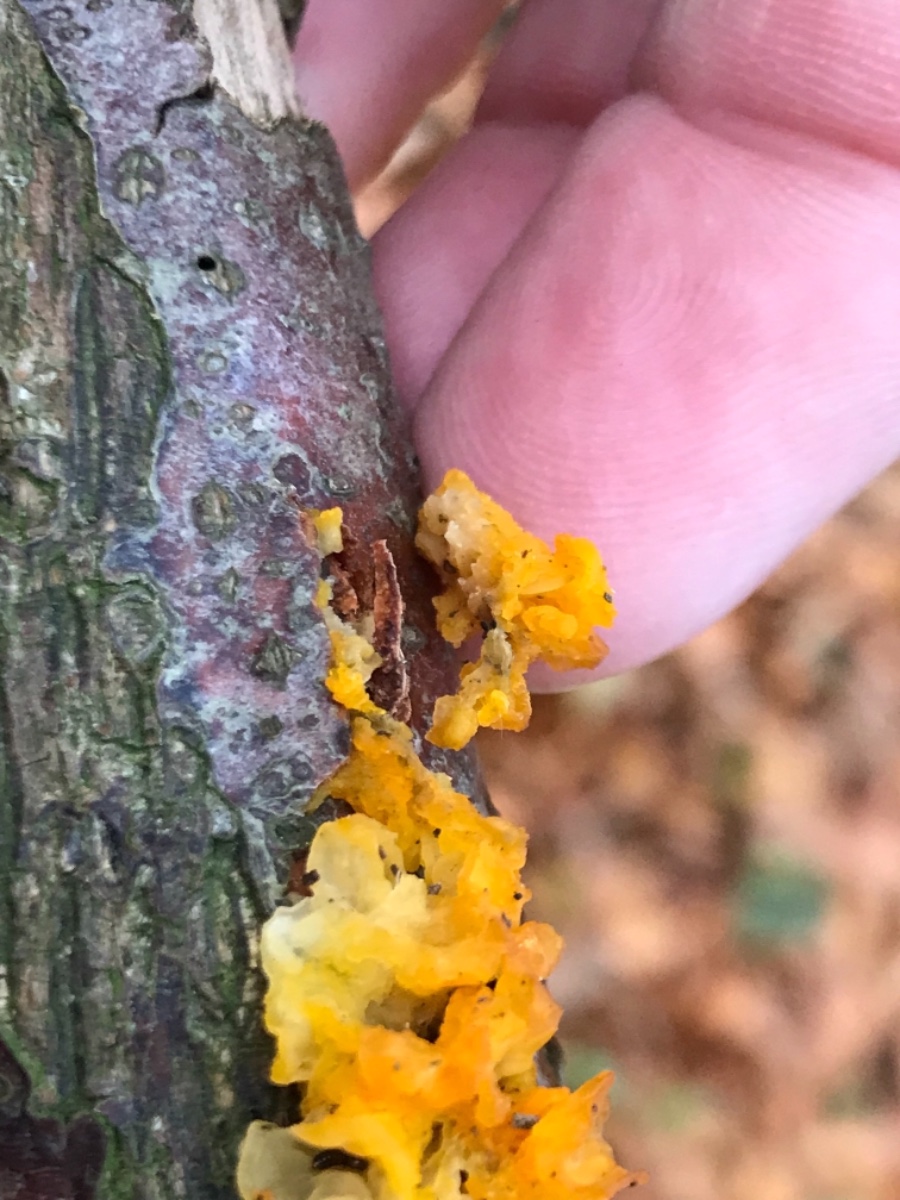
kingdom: Fungi
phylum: Basidiomycota
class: Tremellomycetes
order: Tremellales
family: Tremellaceae
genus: Tremella
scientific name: Tremella mesenterica
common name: gul bævresvamp
